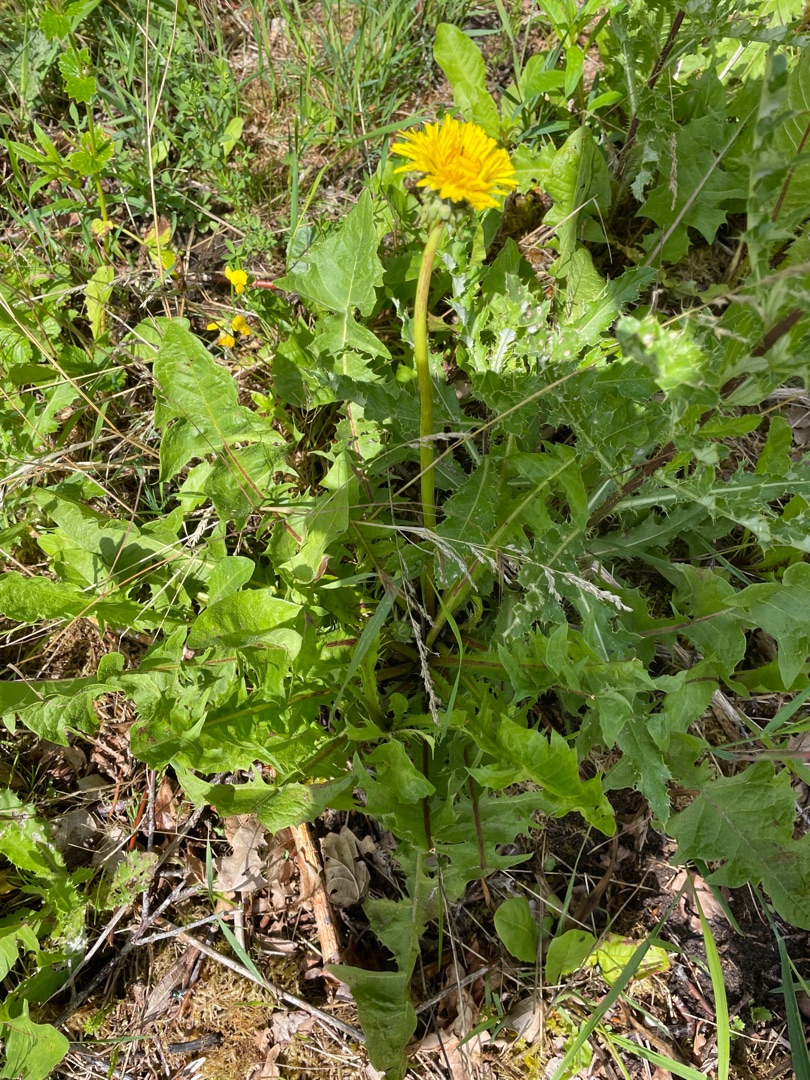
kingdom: Plantae
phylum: Tracheophyta
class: Magnoliopsida
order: Asterales
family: Asteraceae
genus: Taraxacum
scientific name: Taraxacum
